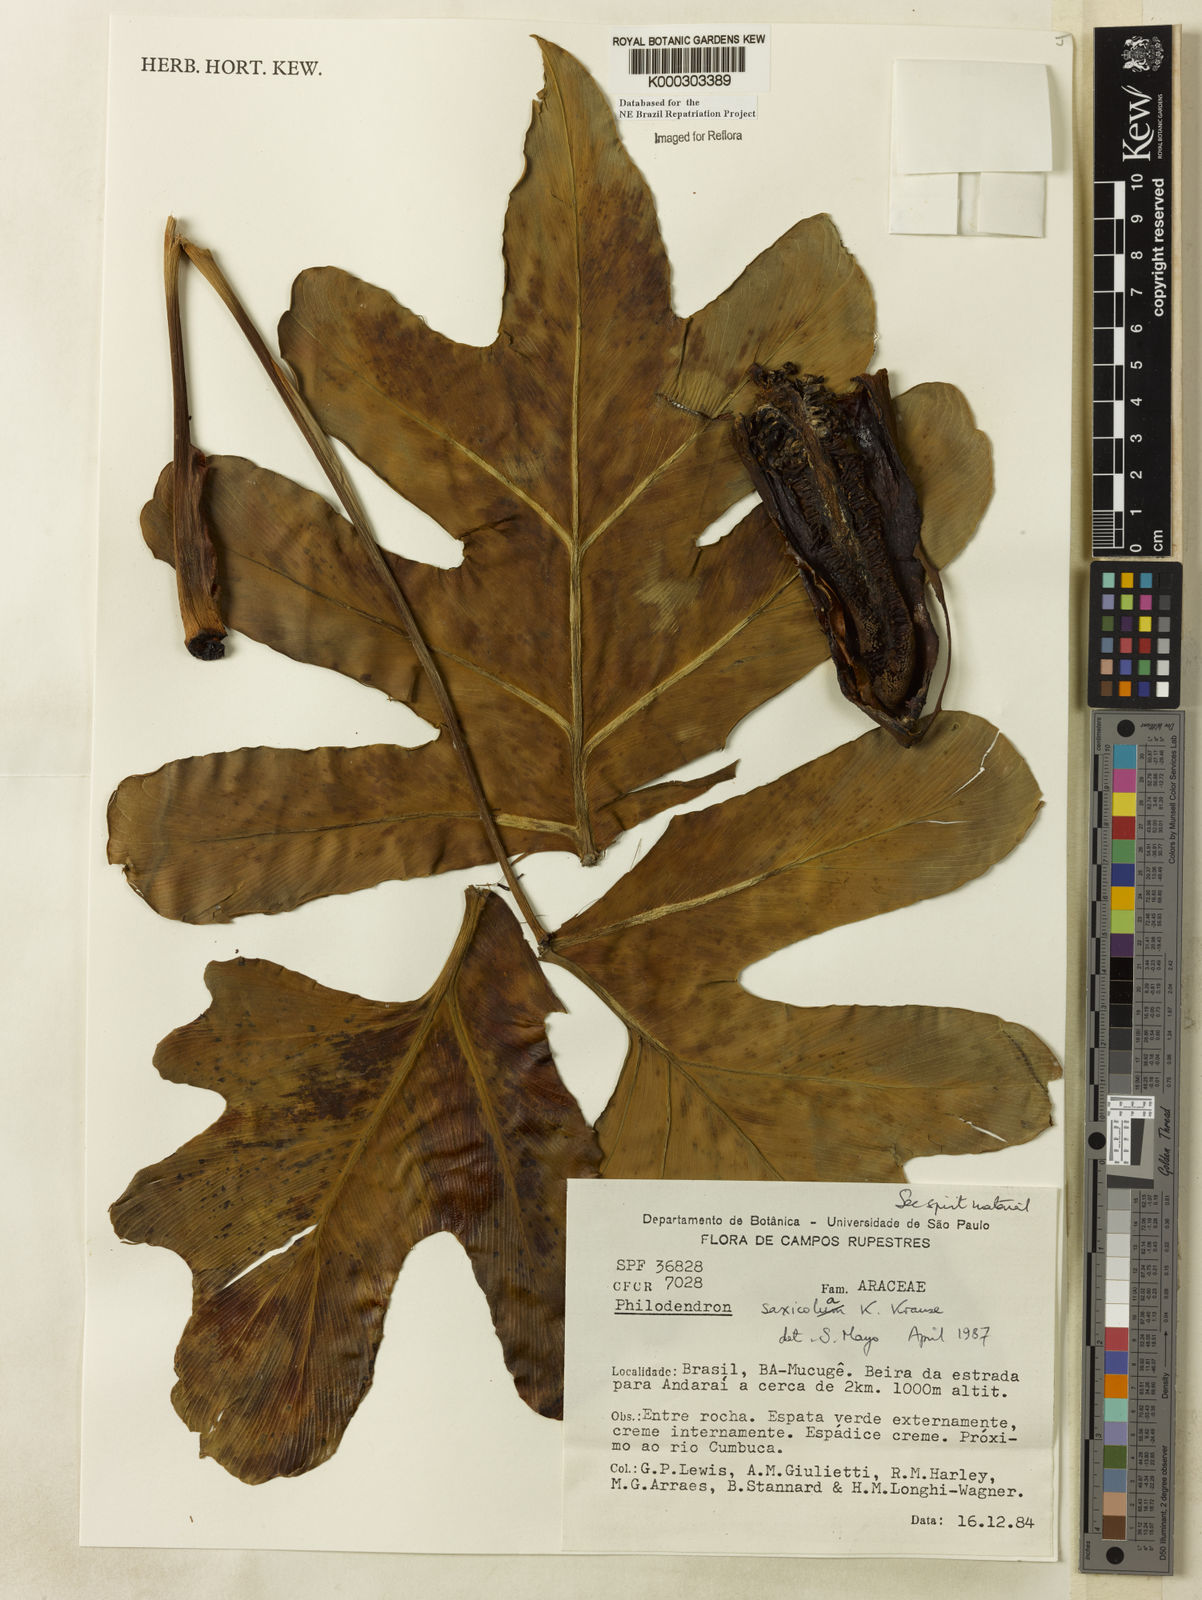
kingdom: Plantae
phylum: Tracheophyta
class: Liliopsida
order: Alismatales
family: Araceae
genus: Thaumatophyllum
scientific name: Thaumatophyllum saxicola
